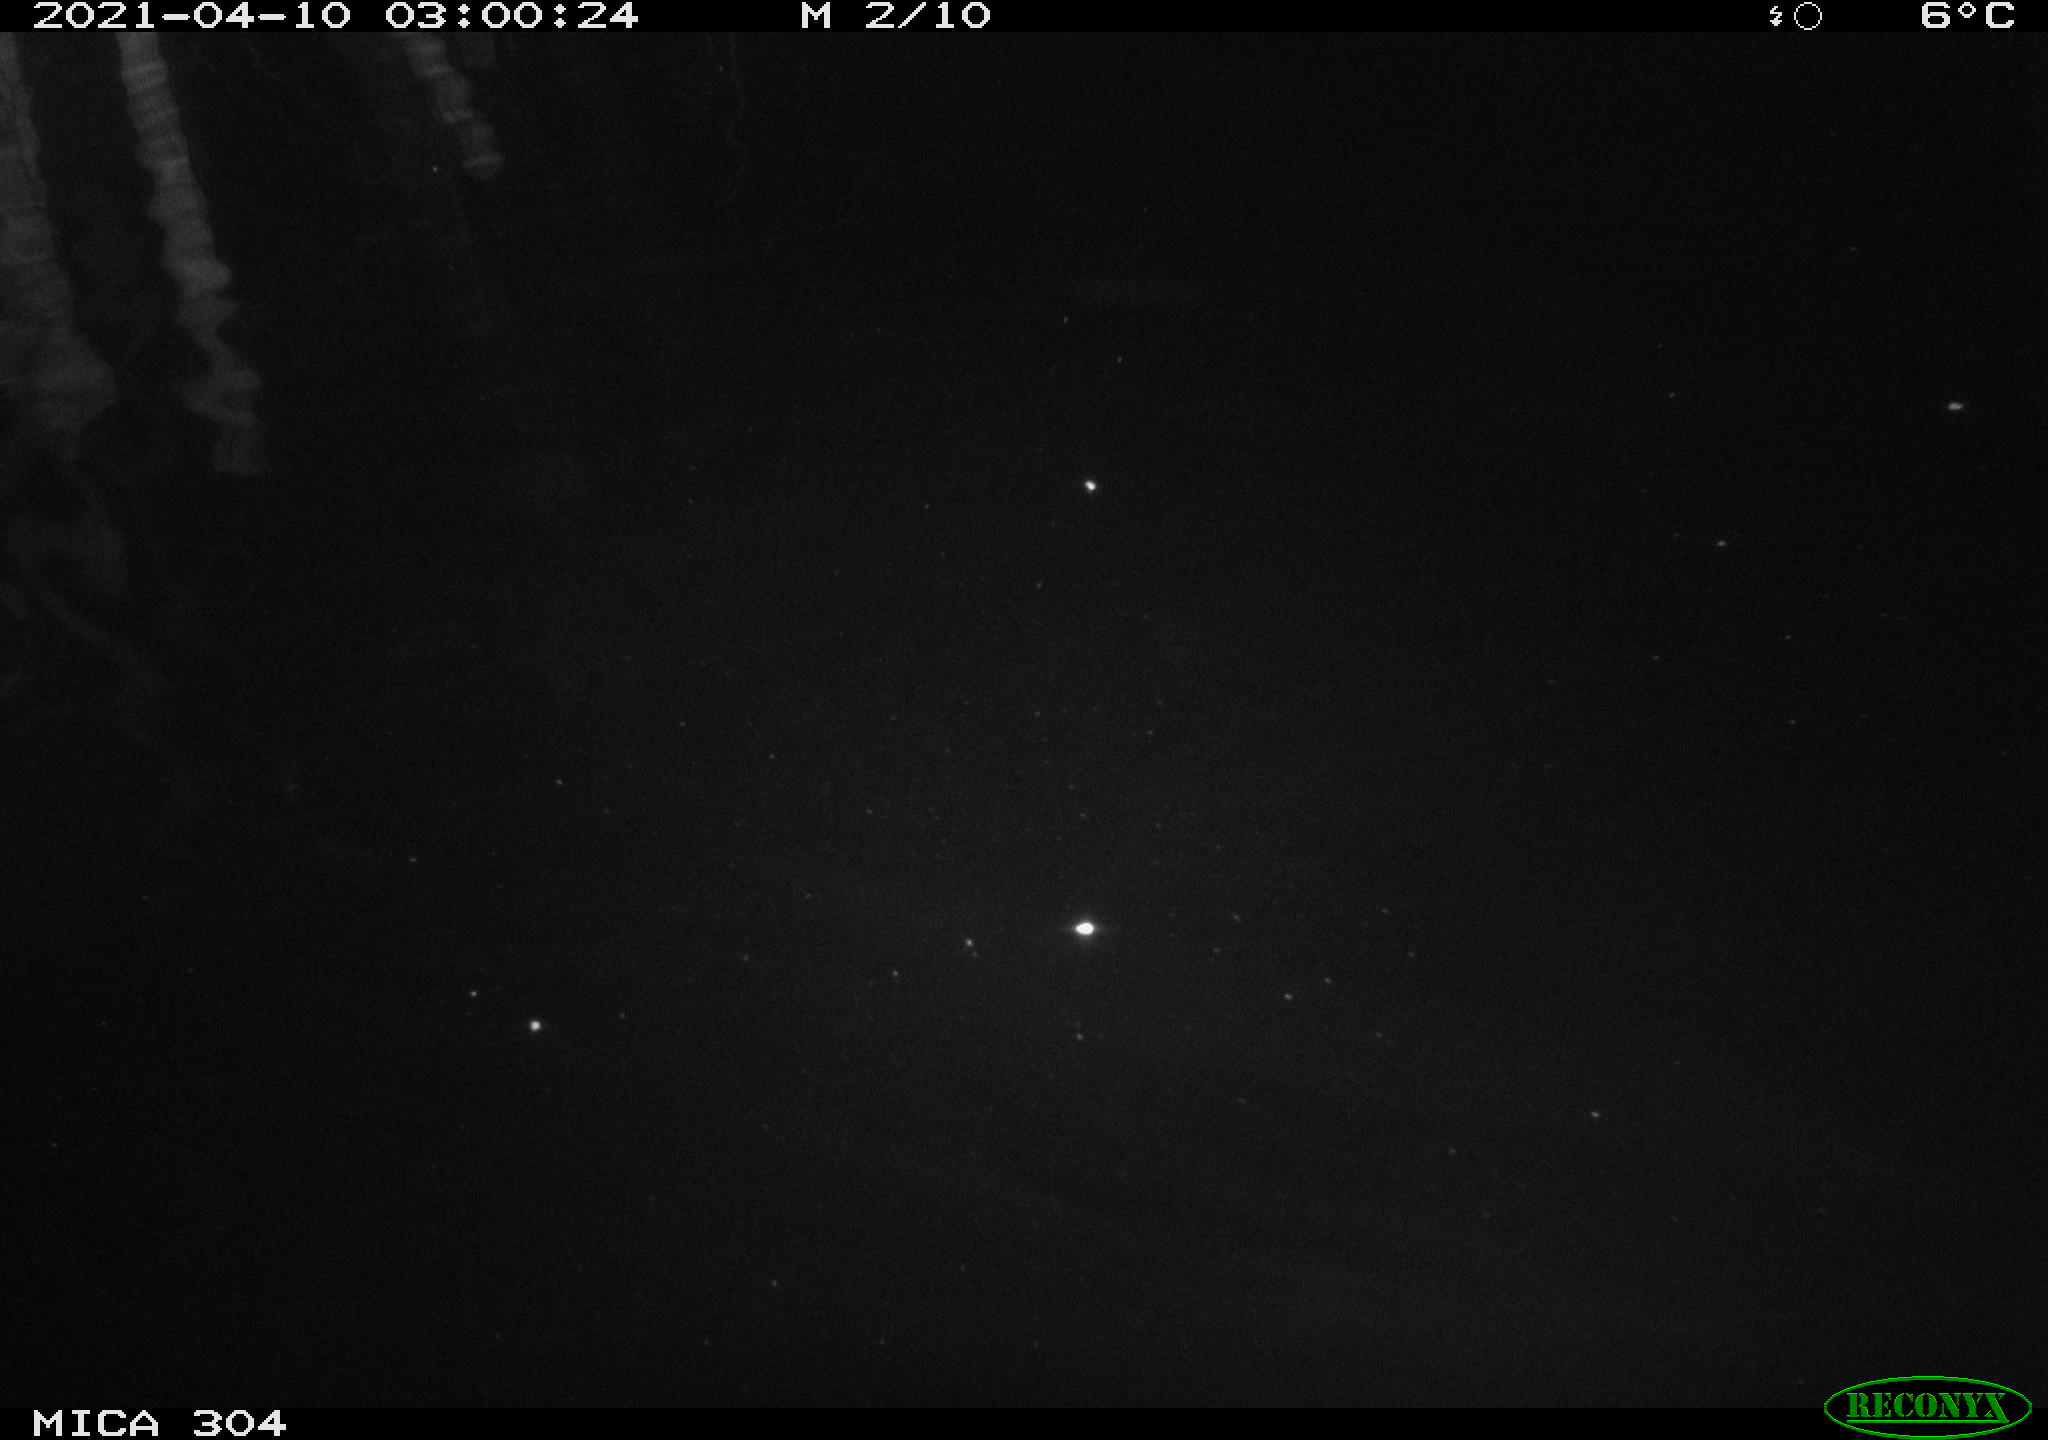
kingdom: Animalia
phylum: Chordata
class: Aves
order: Anseriformes
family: Anatidae
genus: Anas
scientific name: Anas platyrhynchos
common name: Mallard
